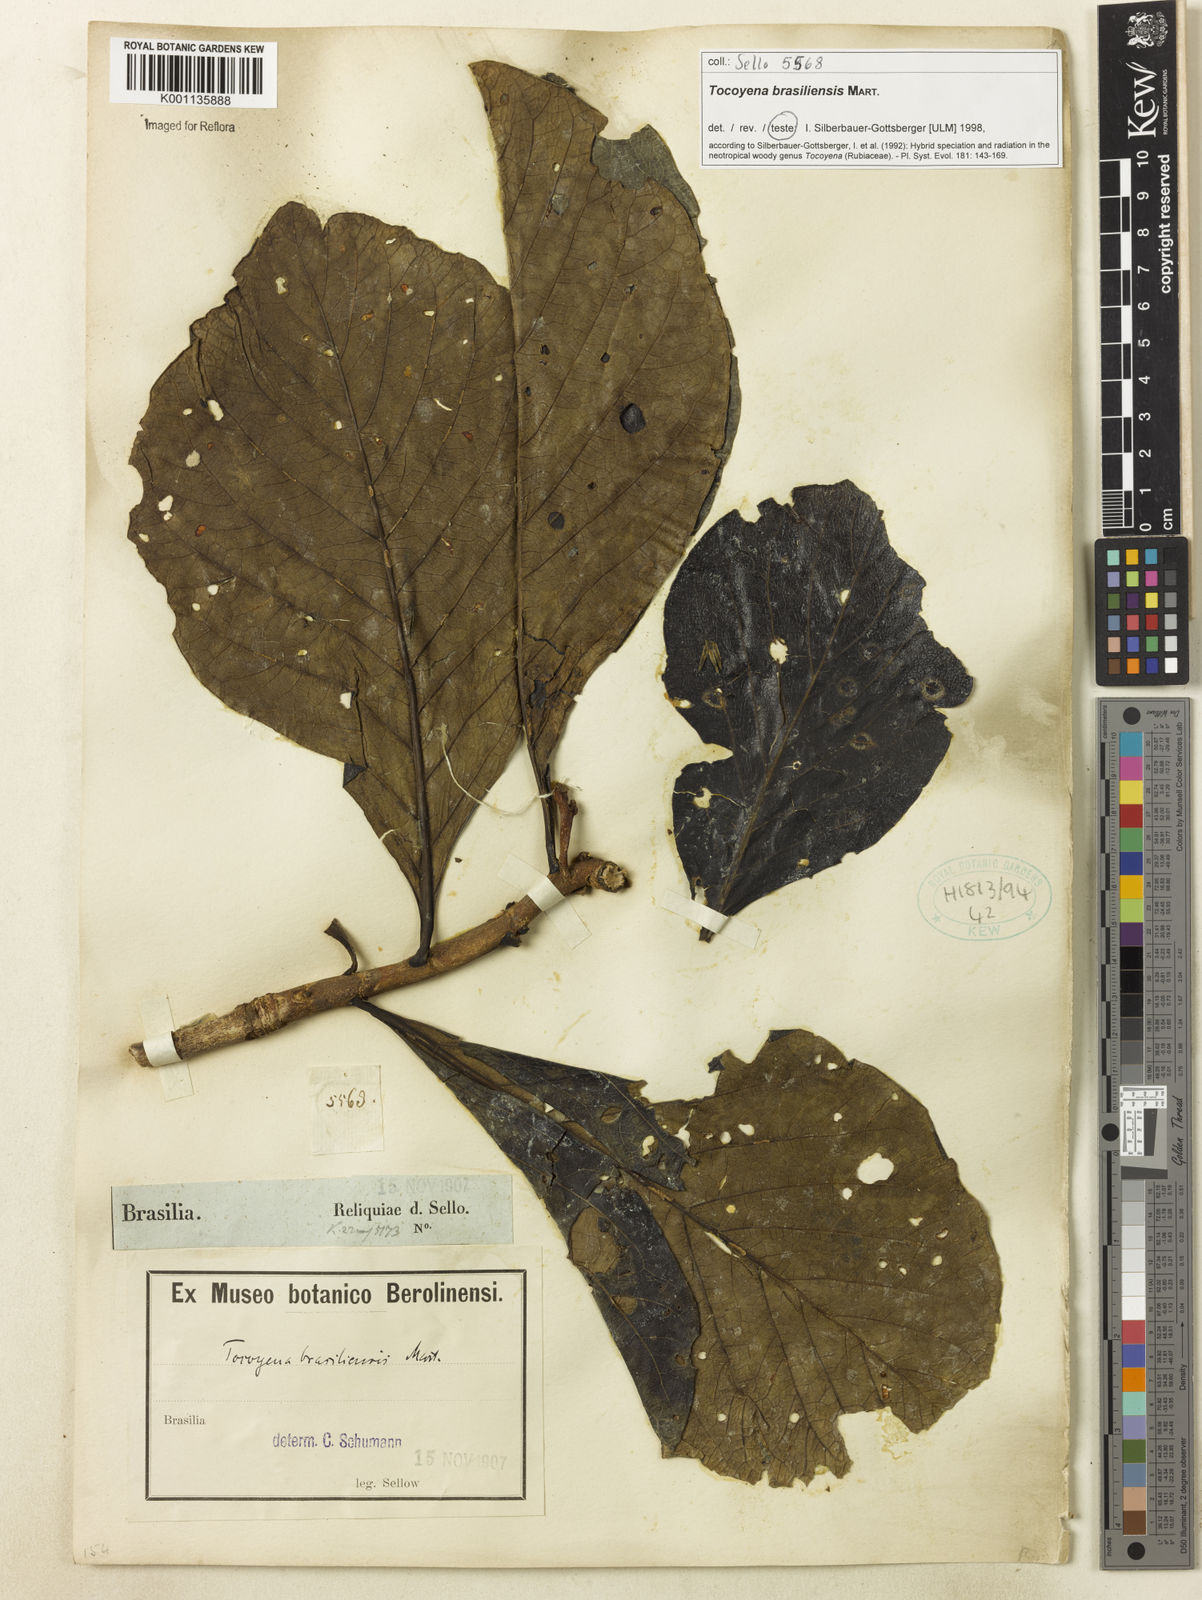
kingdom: Plantae
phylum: Tracheophyta
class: Magnoliopsida
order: Gentianales
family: Rubiaceae
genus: Tocoyena
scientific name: Tocoyena sprucei
